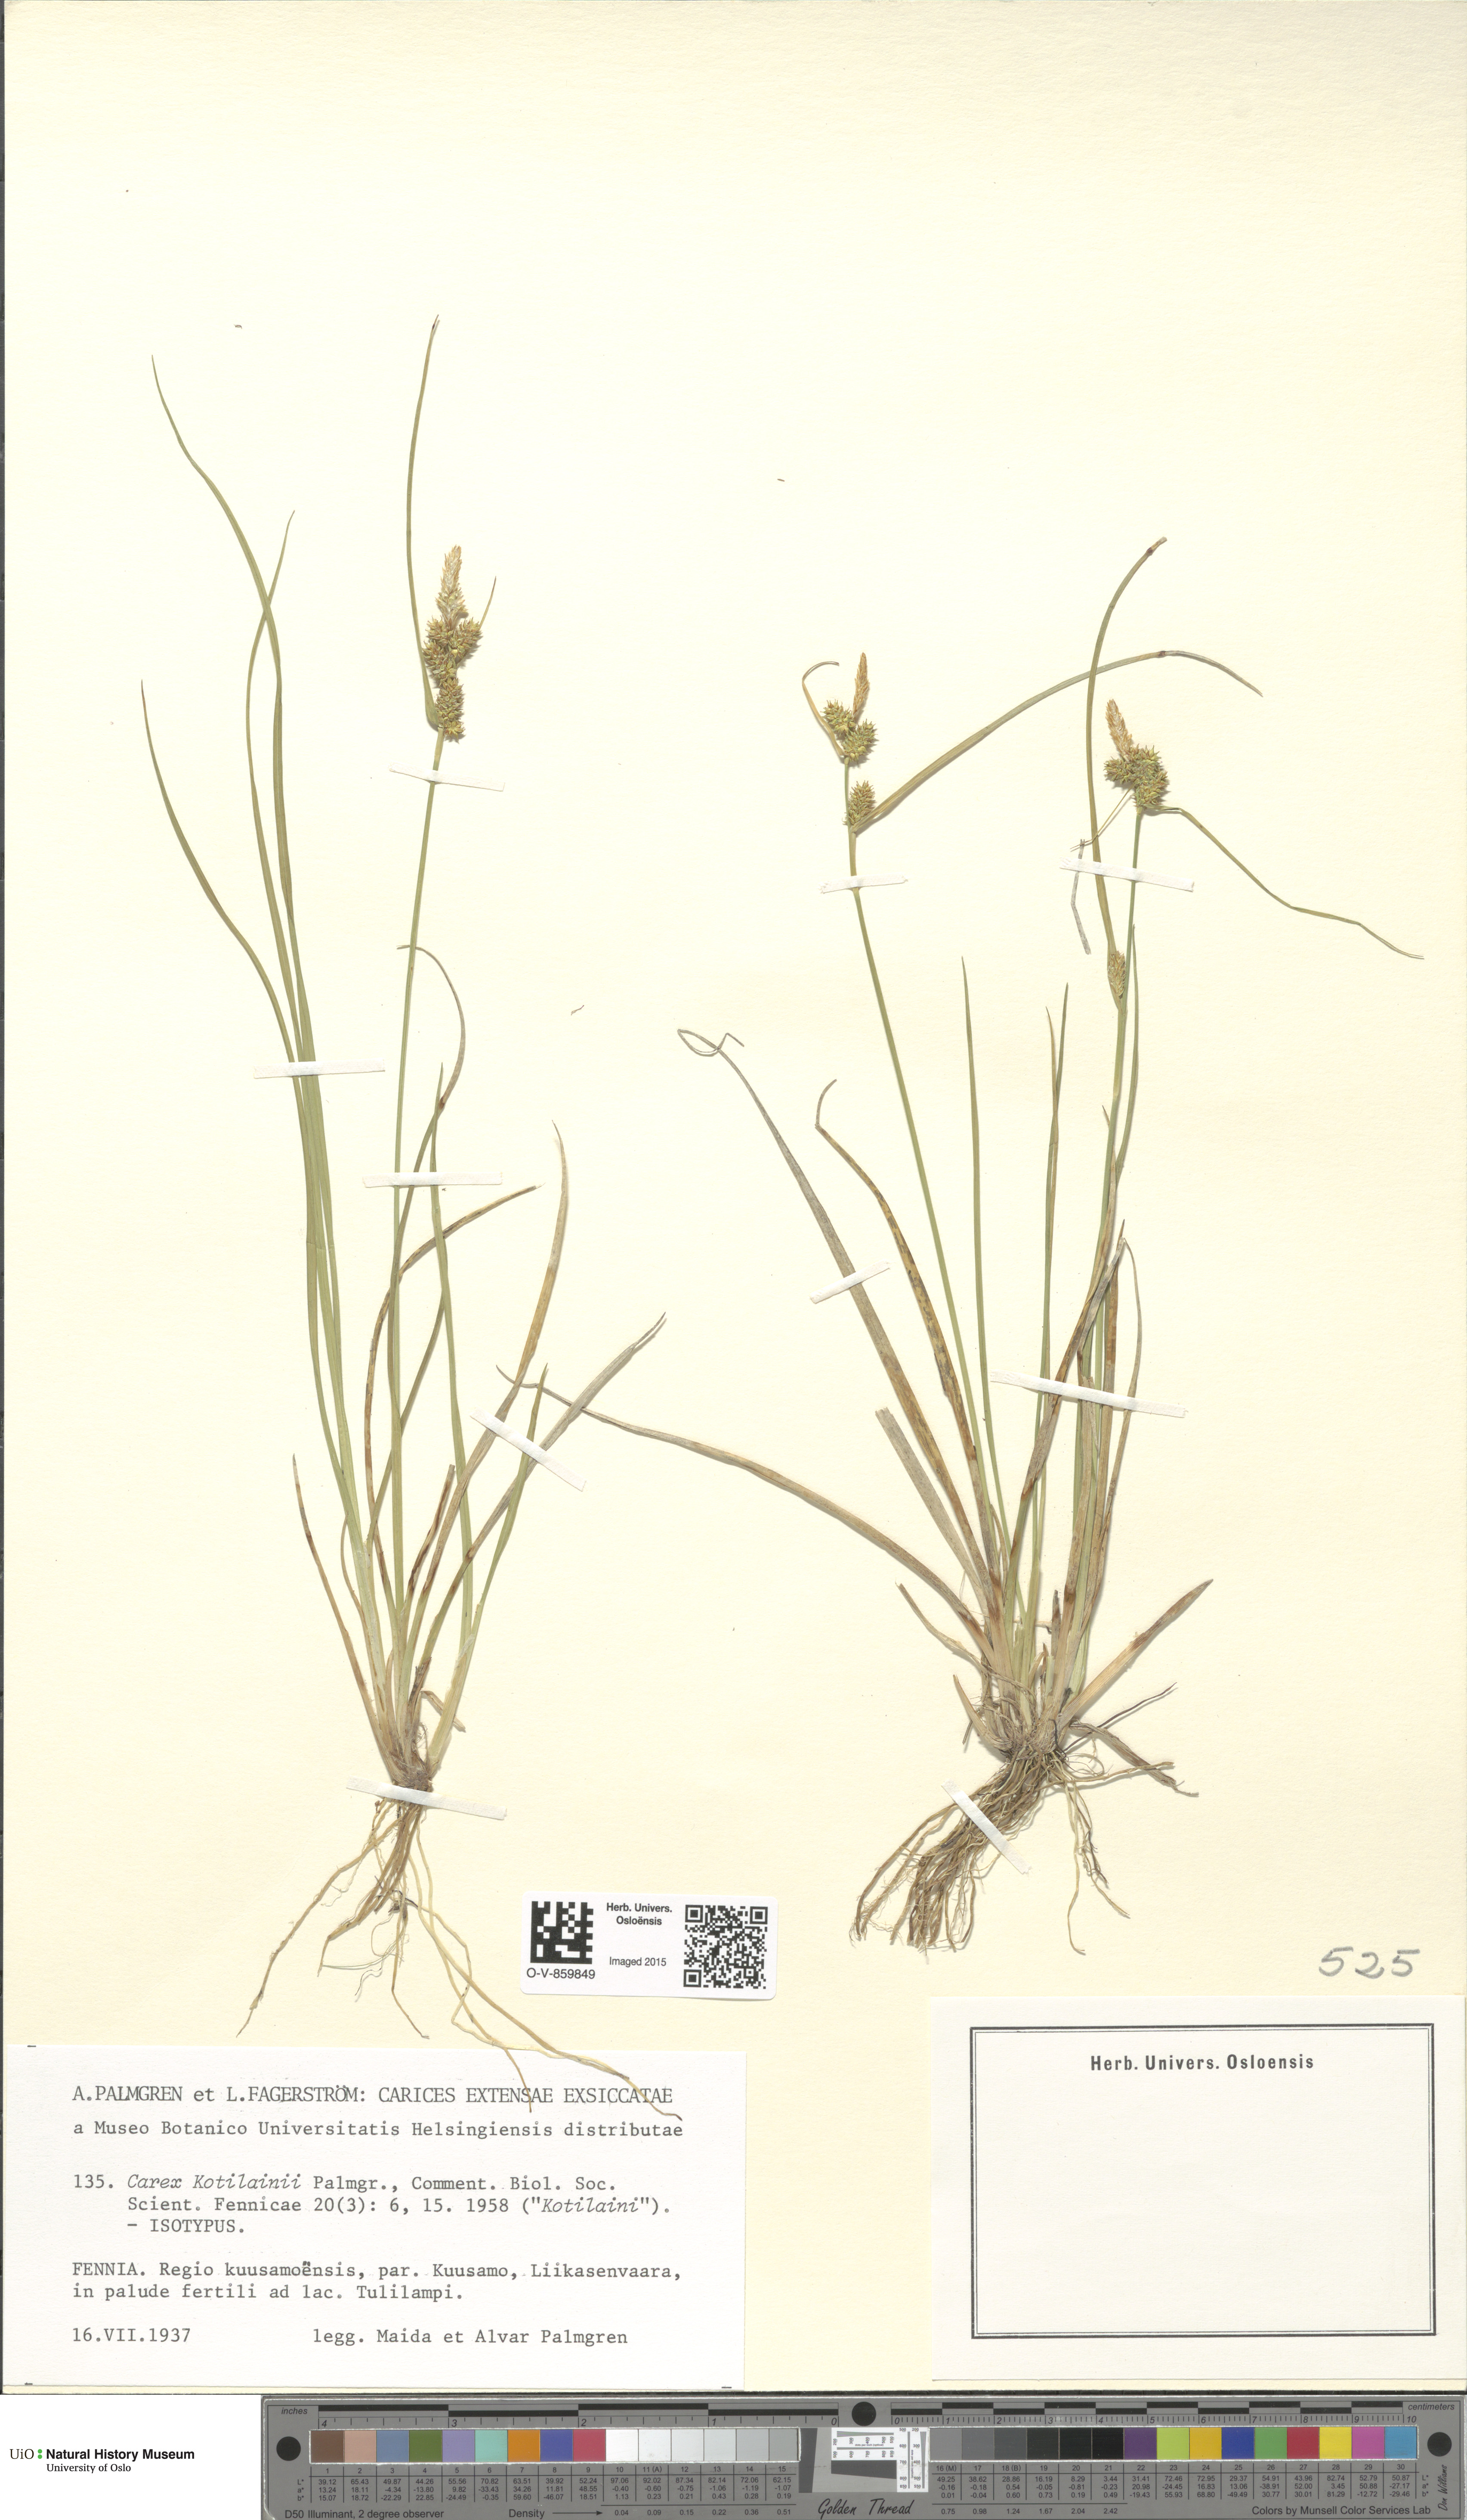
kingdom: Plantae
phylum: Tracheophyta
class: Liliopsida
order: Poales
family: Cyperaceae
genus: Carex
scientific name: Carex oederi
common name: Common & small-fruited yellow-sedge
